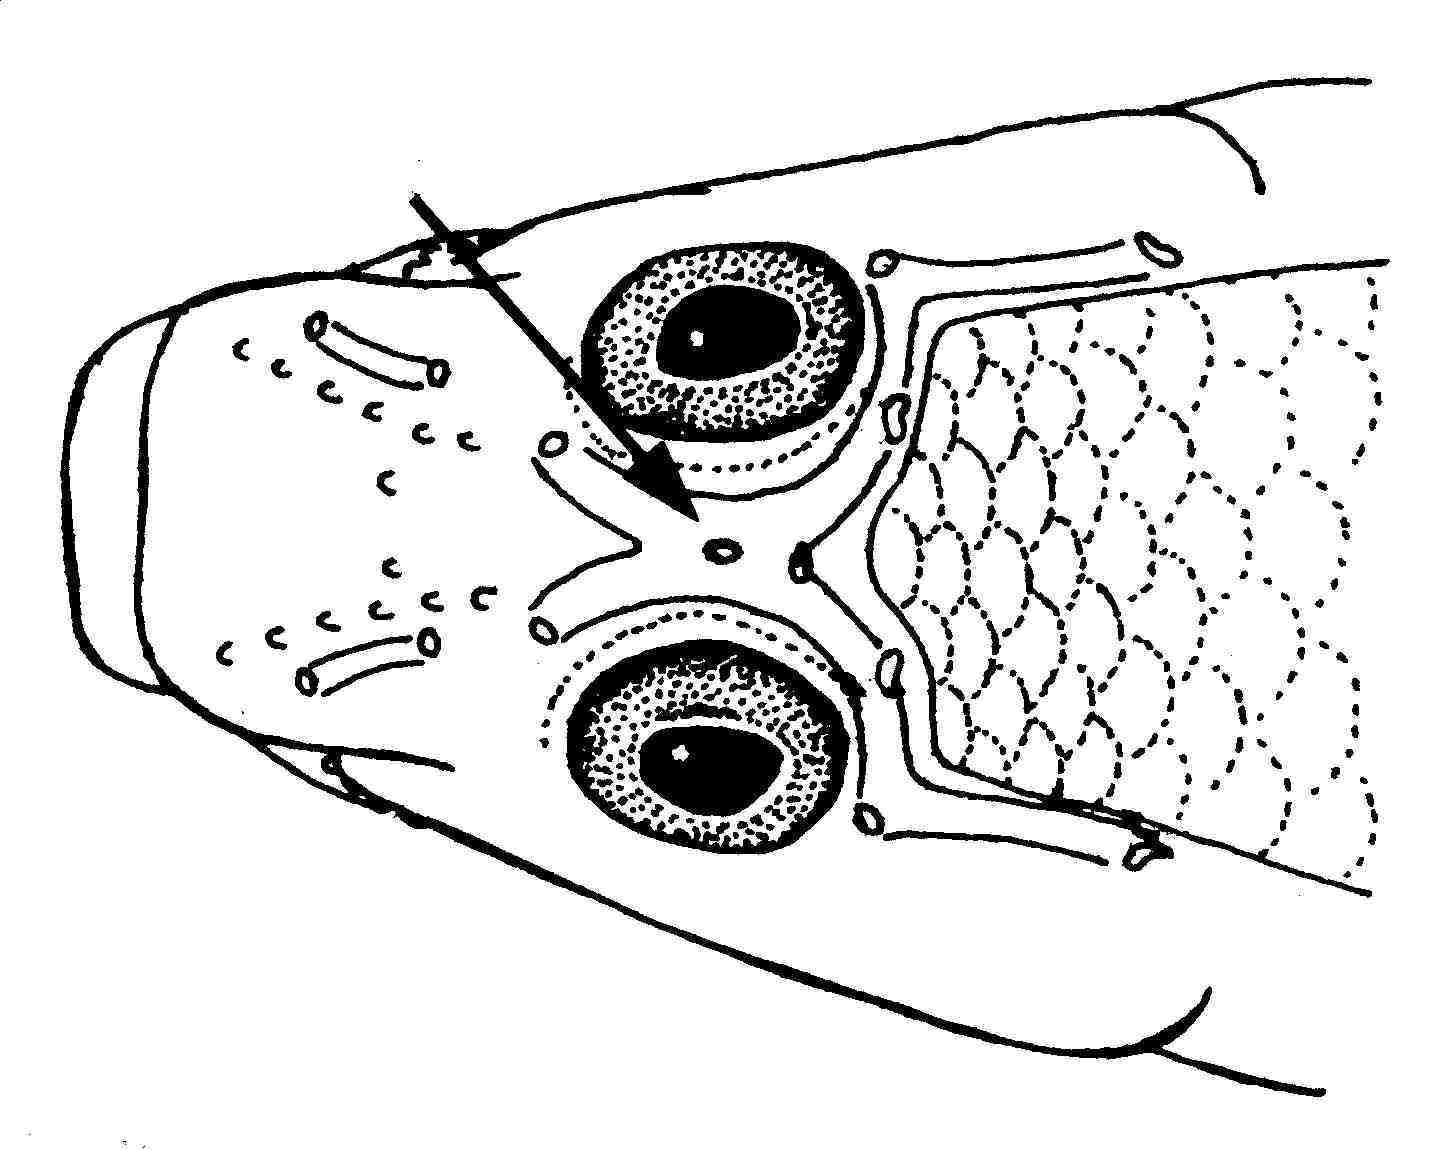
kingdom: Animalia
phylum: Chordata
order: Perciformes
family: Gobiidae
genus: Pleurosicya
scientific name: Pleurosicya boldinghi
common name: Soft-coral goby
